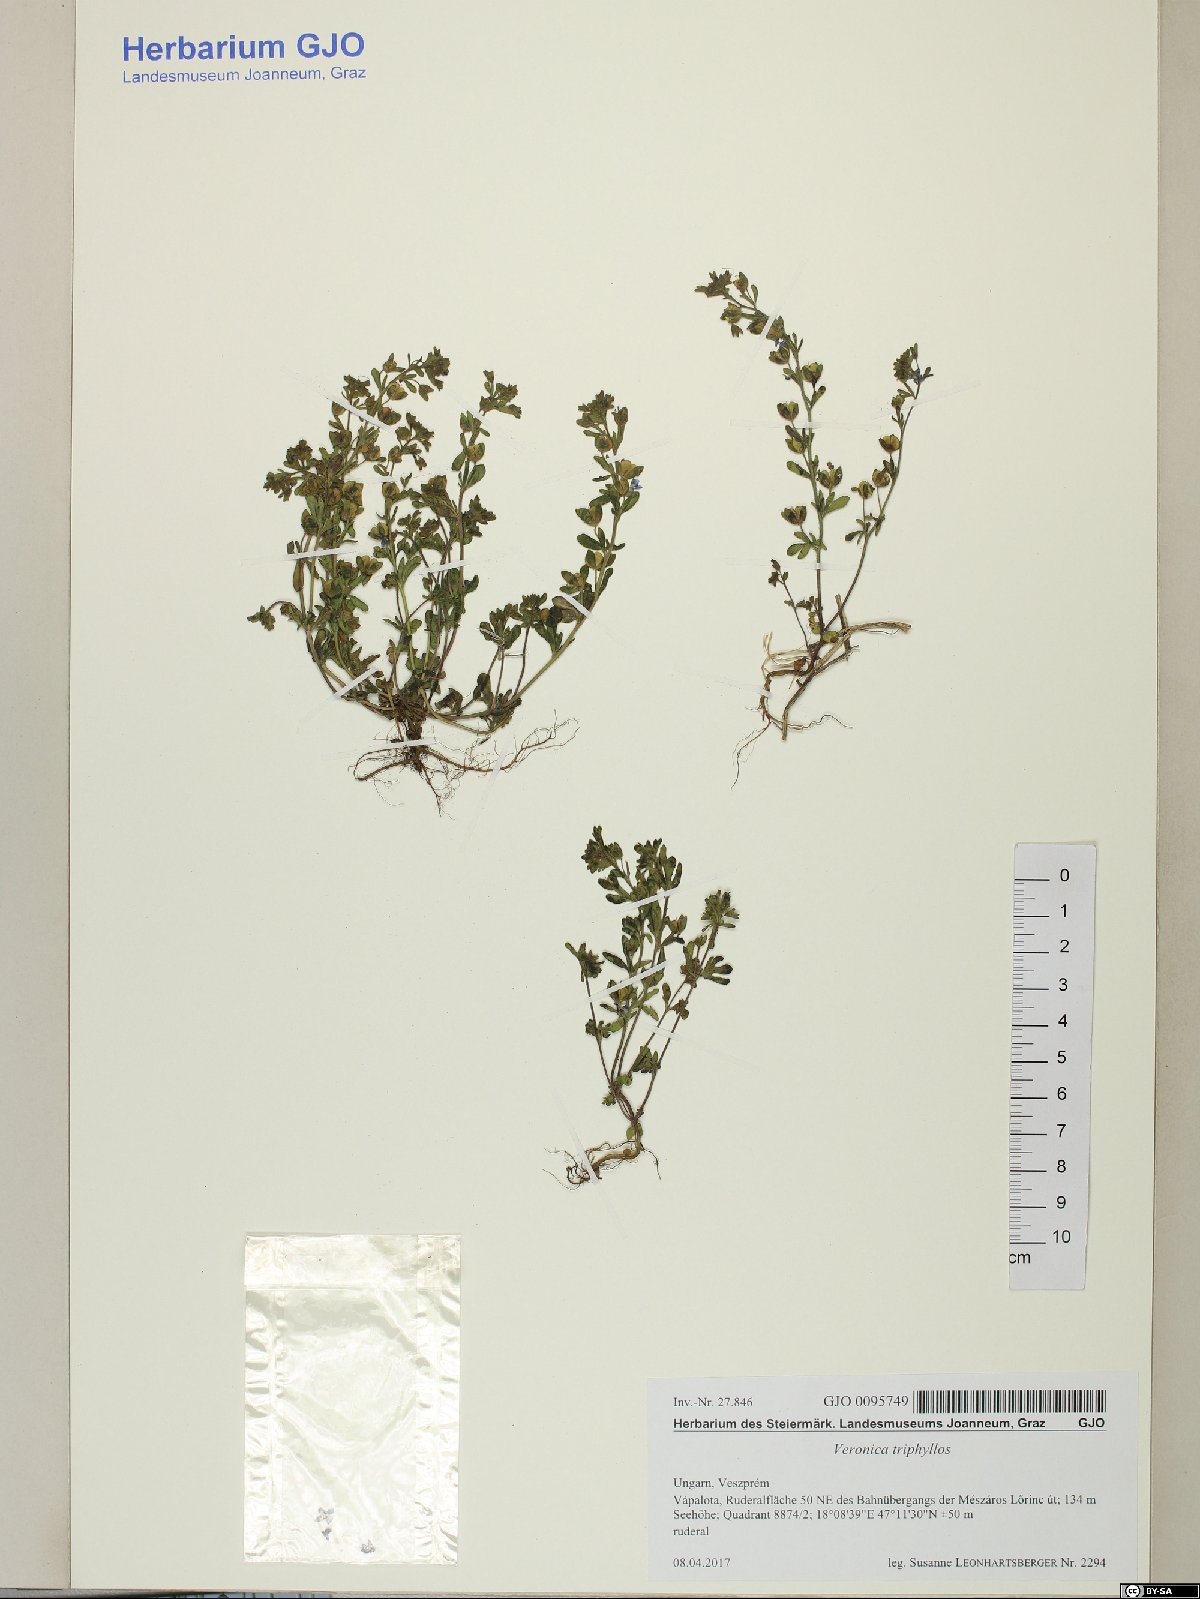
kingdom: Plantae
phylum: Tracheophyta
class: Magnoliopsida
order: Lamiales
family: Plantaginaceae
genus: Veronica
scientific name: Veronica triphyllos
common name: Fingered speedwell
